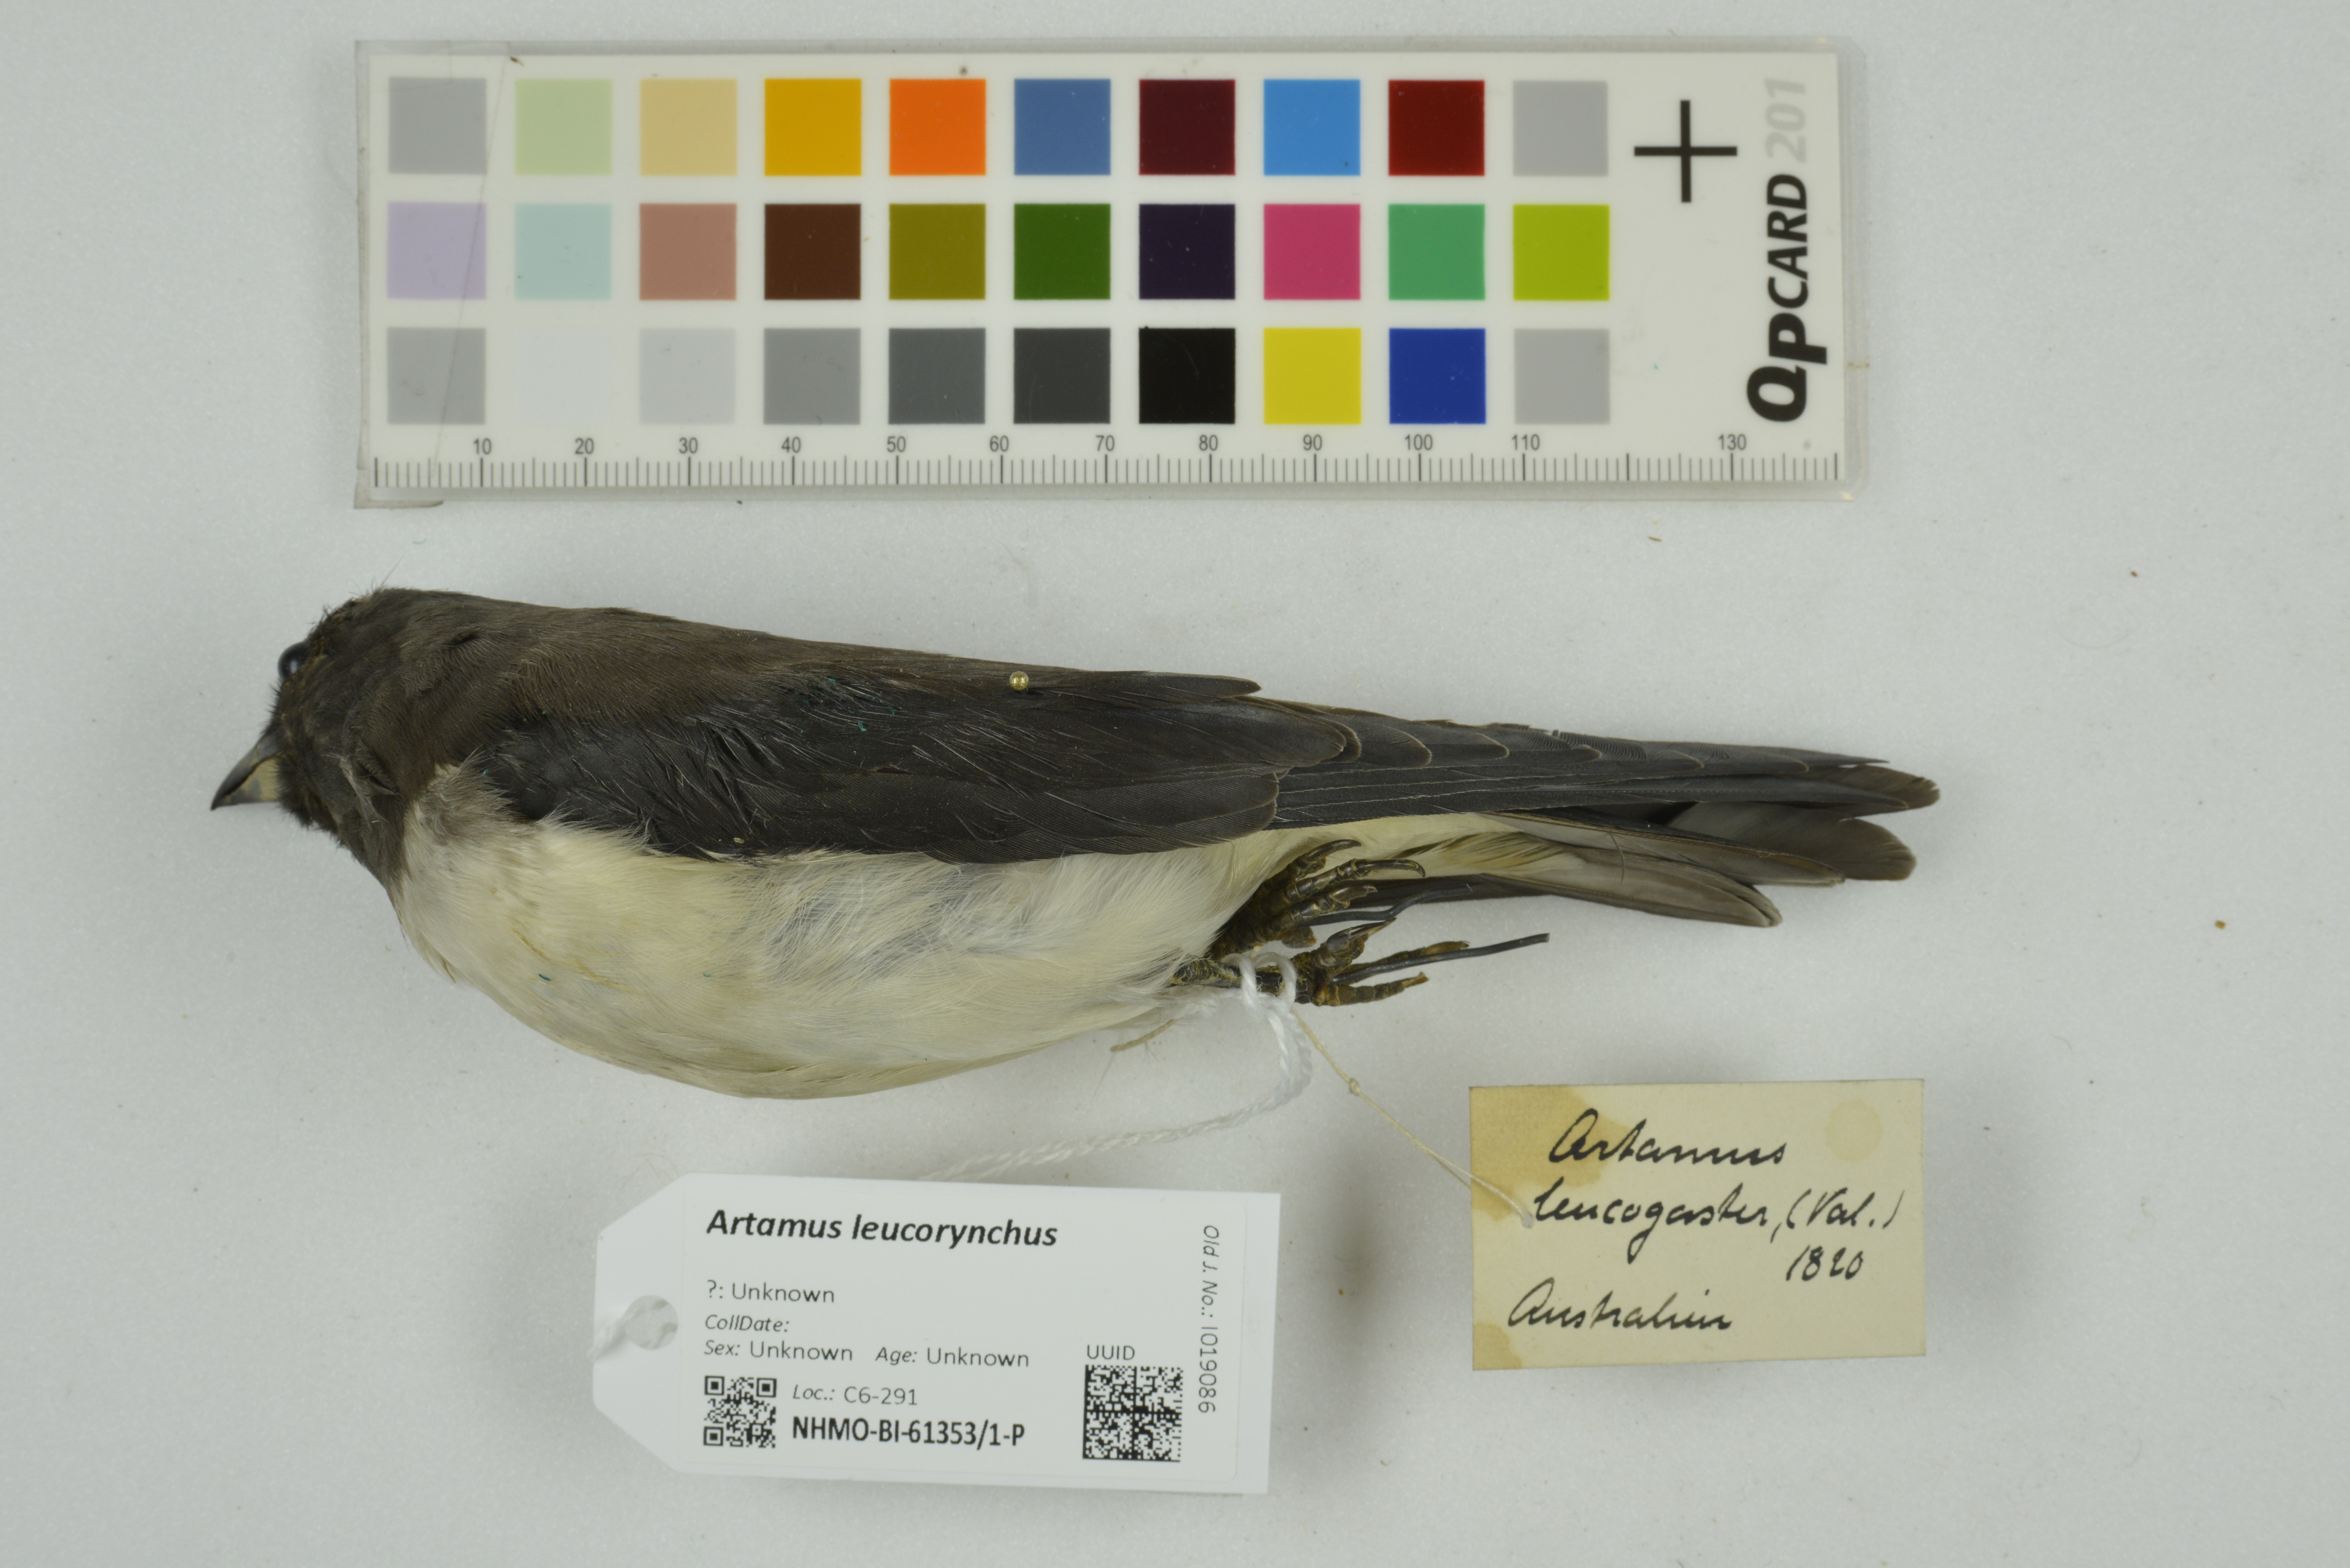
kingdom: Animalia
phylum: Chordata
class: Aves
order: Passeriformes
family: Artamidae
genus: Artamus
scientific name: Artamus leucoryn
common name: White-breasted woodswallow
